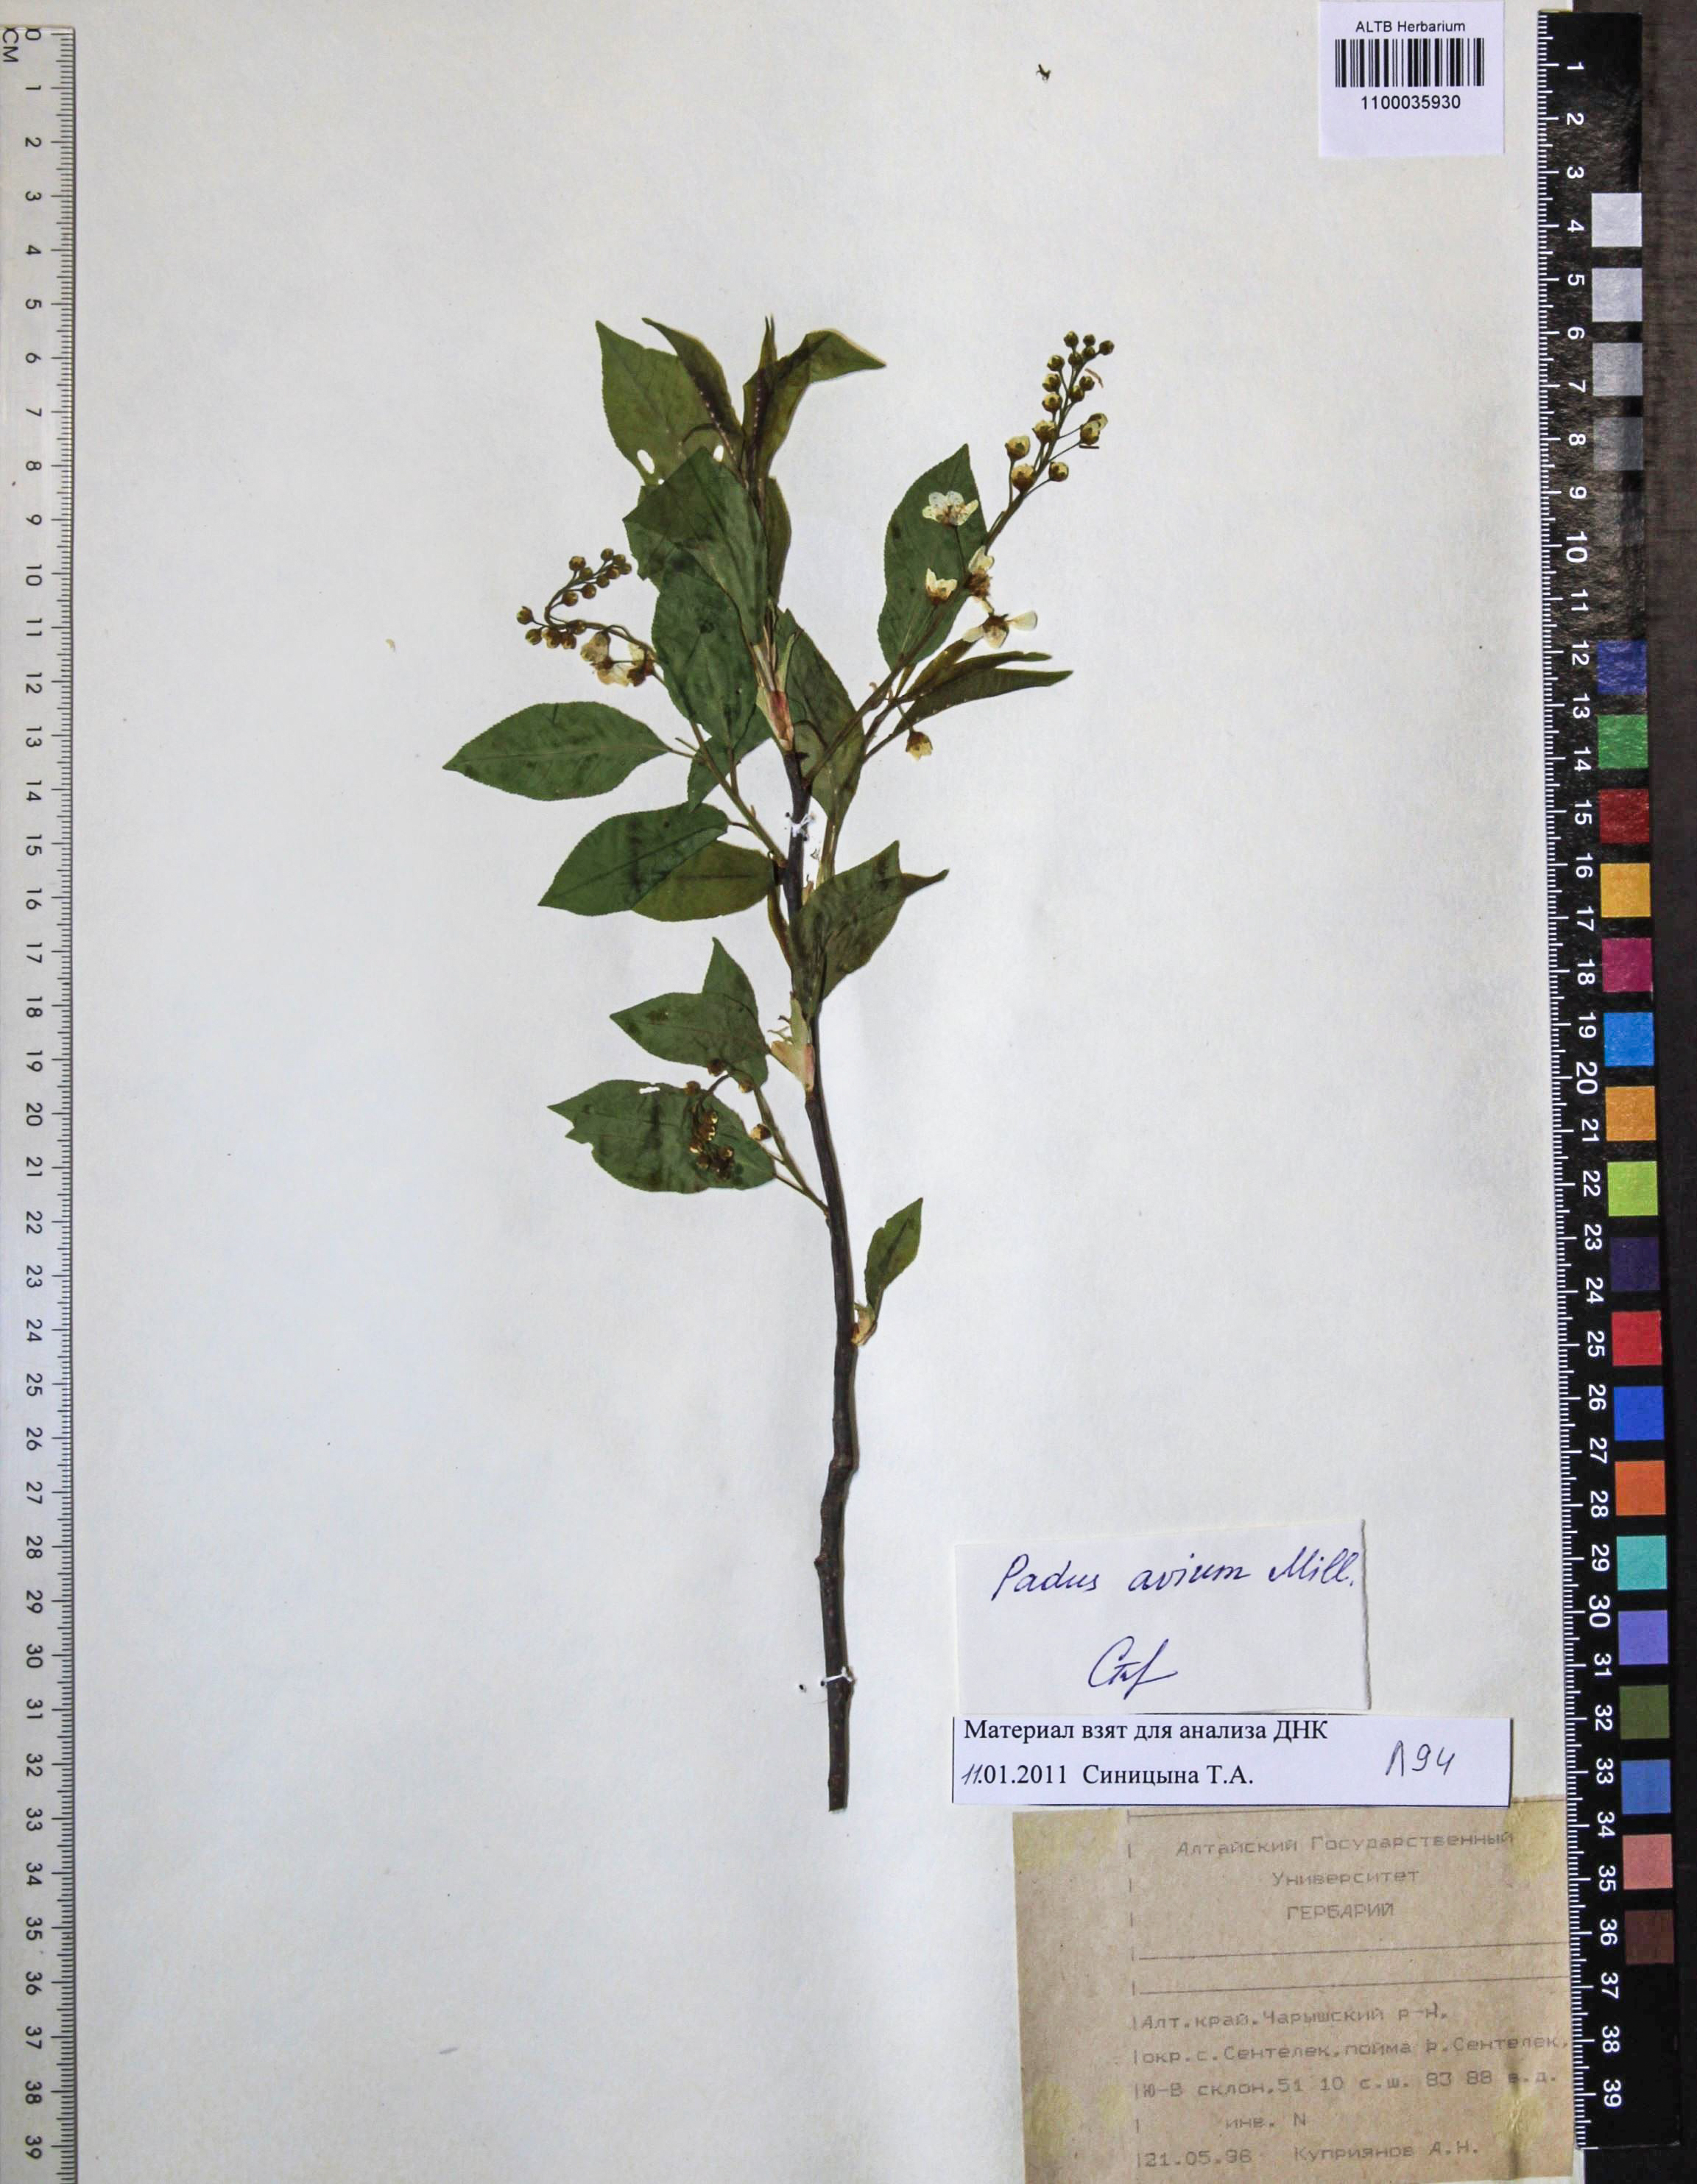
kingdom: Plantae
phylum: Tracheophyta
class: Magnoliopsida
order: Rosales
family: Rosaceae
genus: Prunus
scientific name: Prunus padus
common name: Bird cherry
